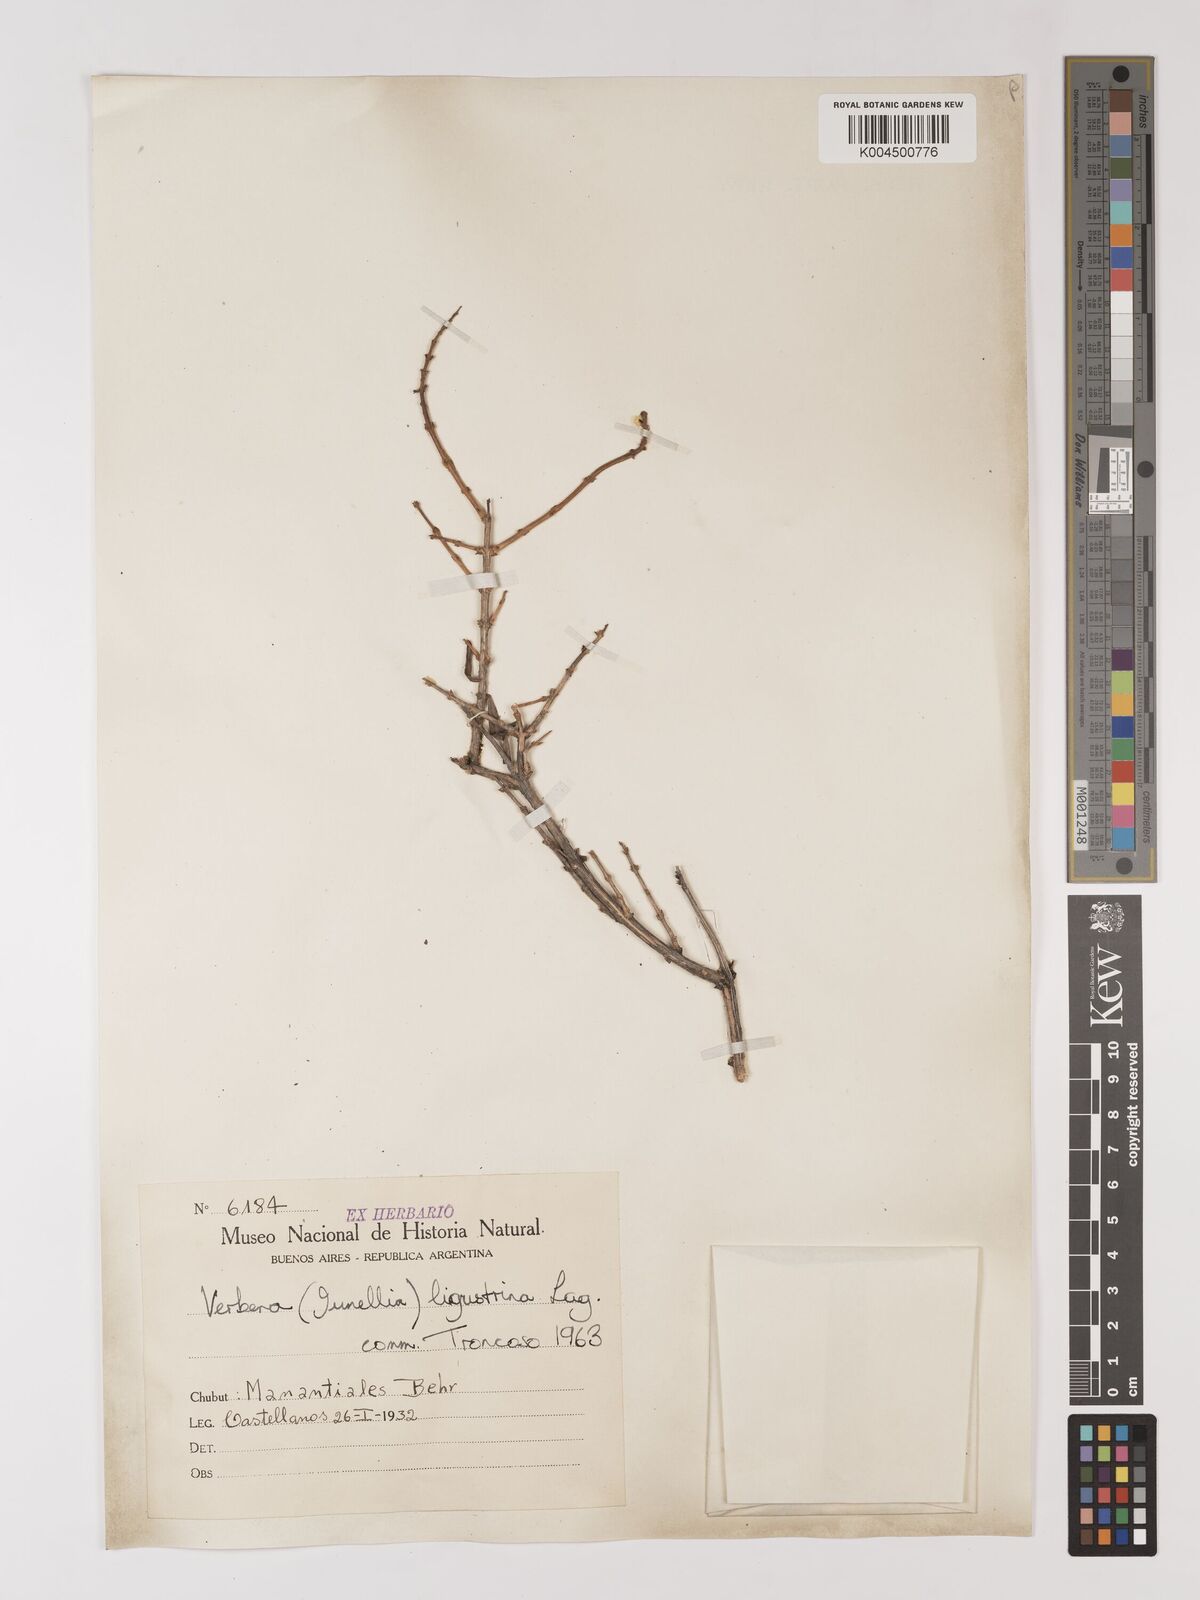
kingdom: Plantae
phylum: Tracheophyta
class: Magnoliopsida
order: Lamiales
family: Verbenaceae
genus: Mulguraea
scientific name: Mulguraea ligustrina
